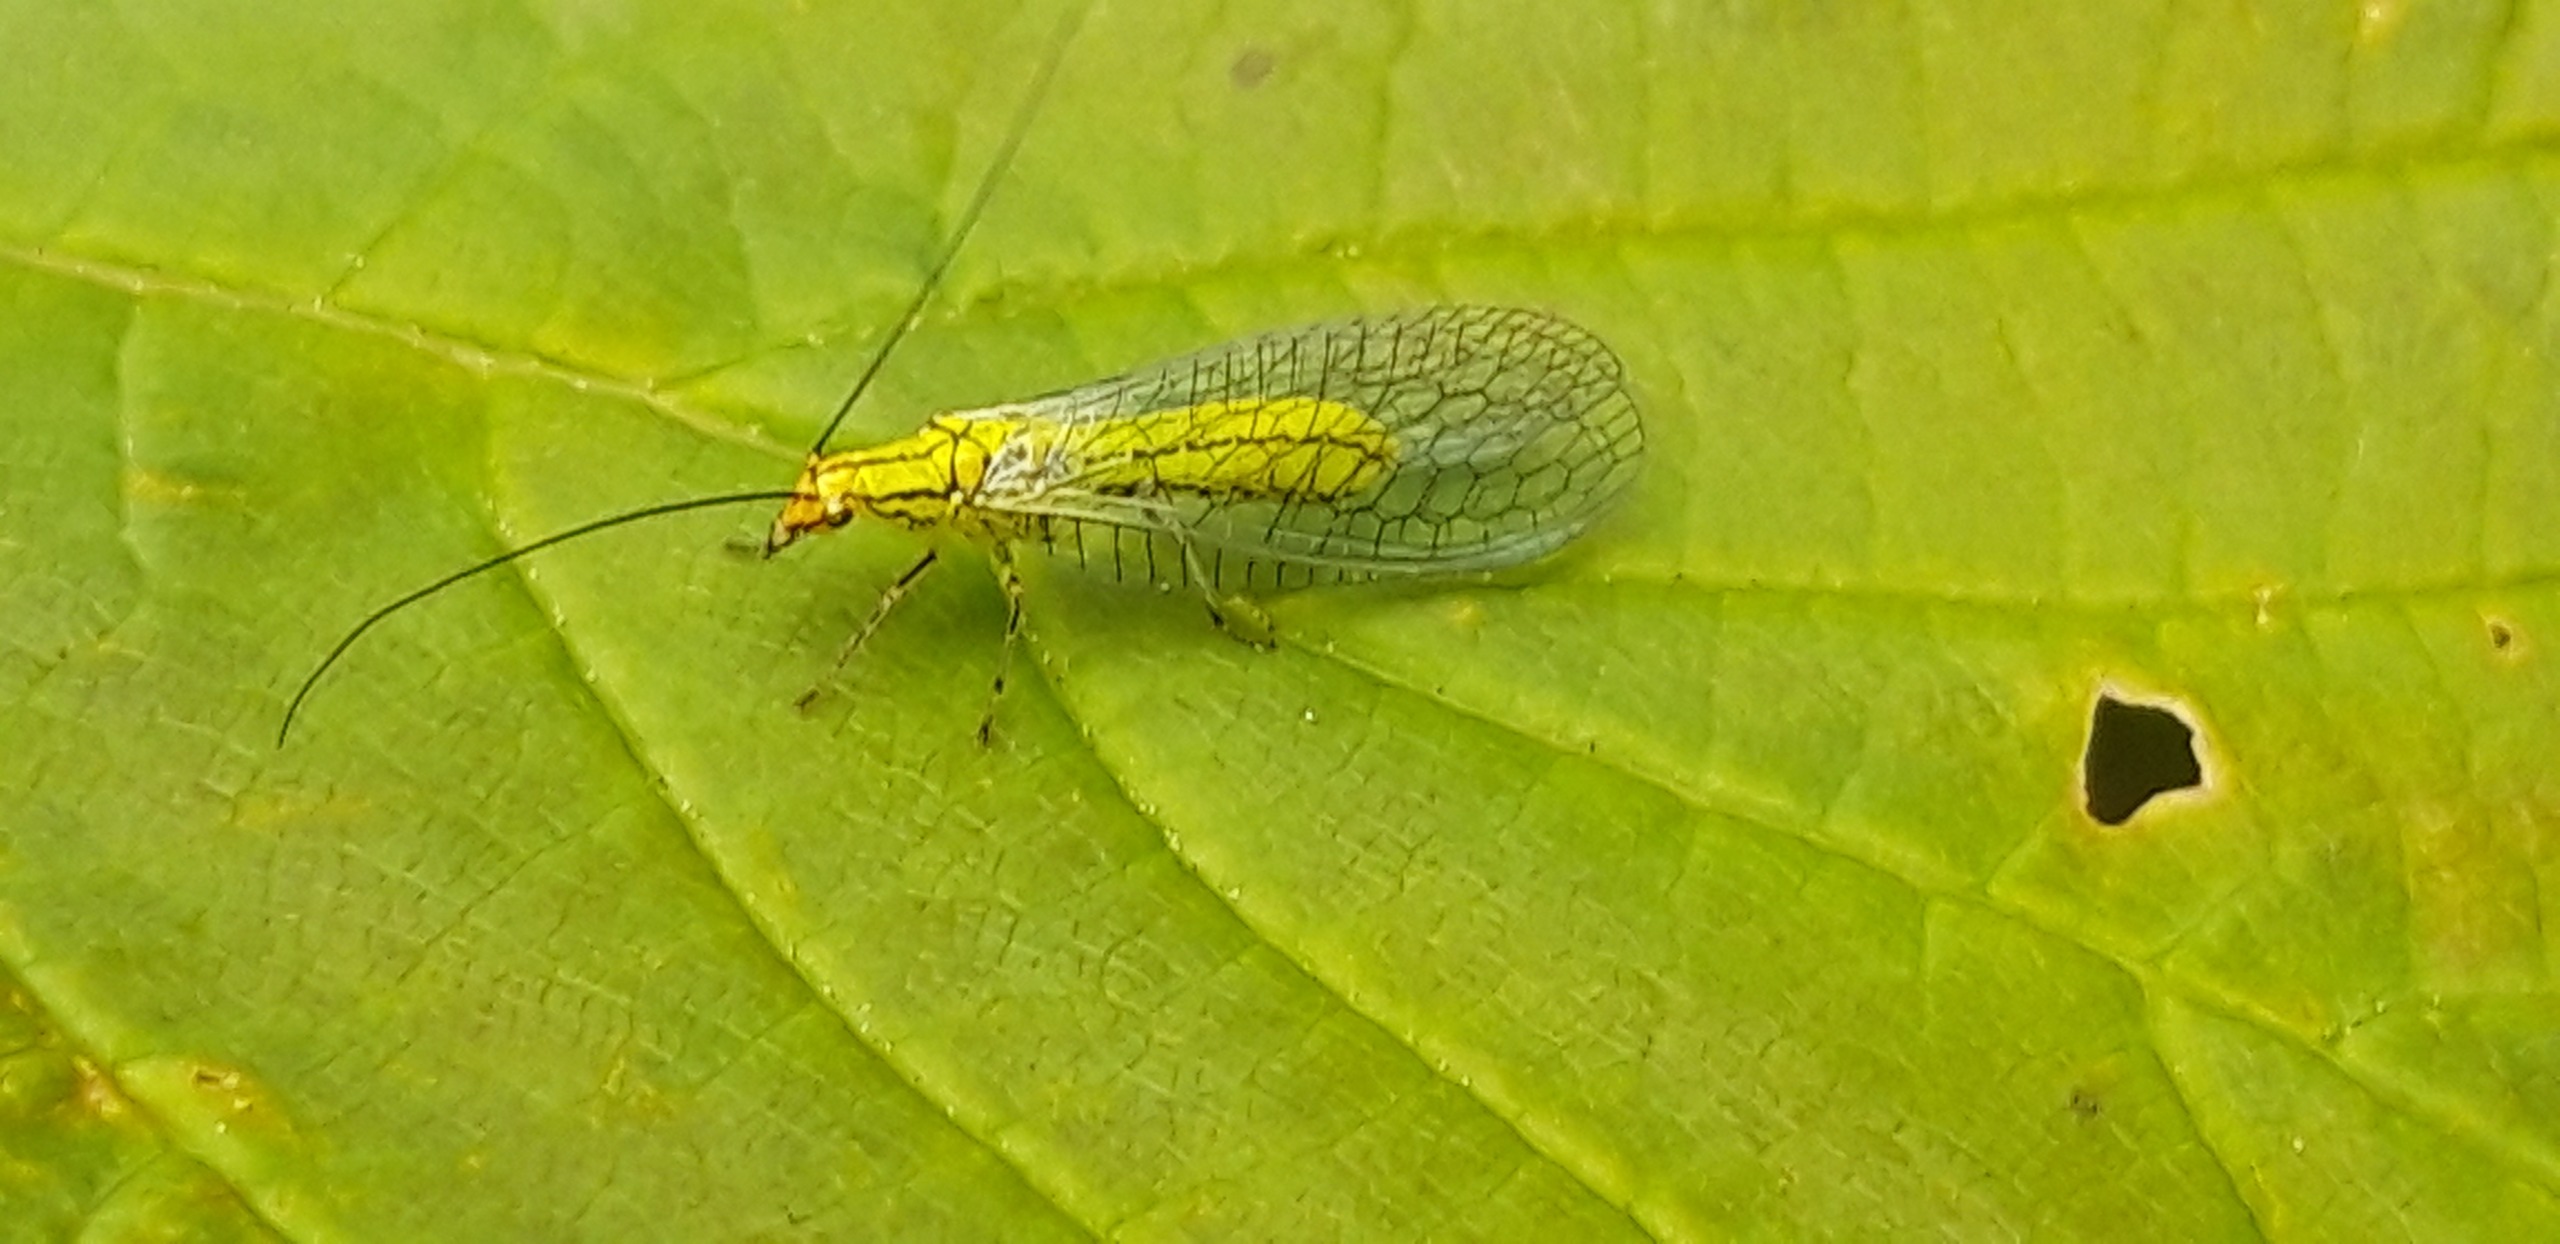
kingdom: Animalia
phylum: Arthropoda
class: Insecta
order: Neuroptera
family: Chrysopidae
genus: Hypochrysa
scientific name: Hypochrysa elegans
